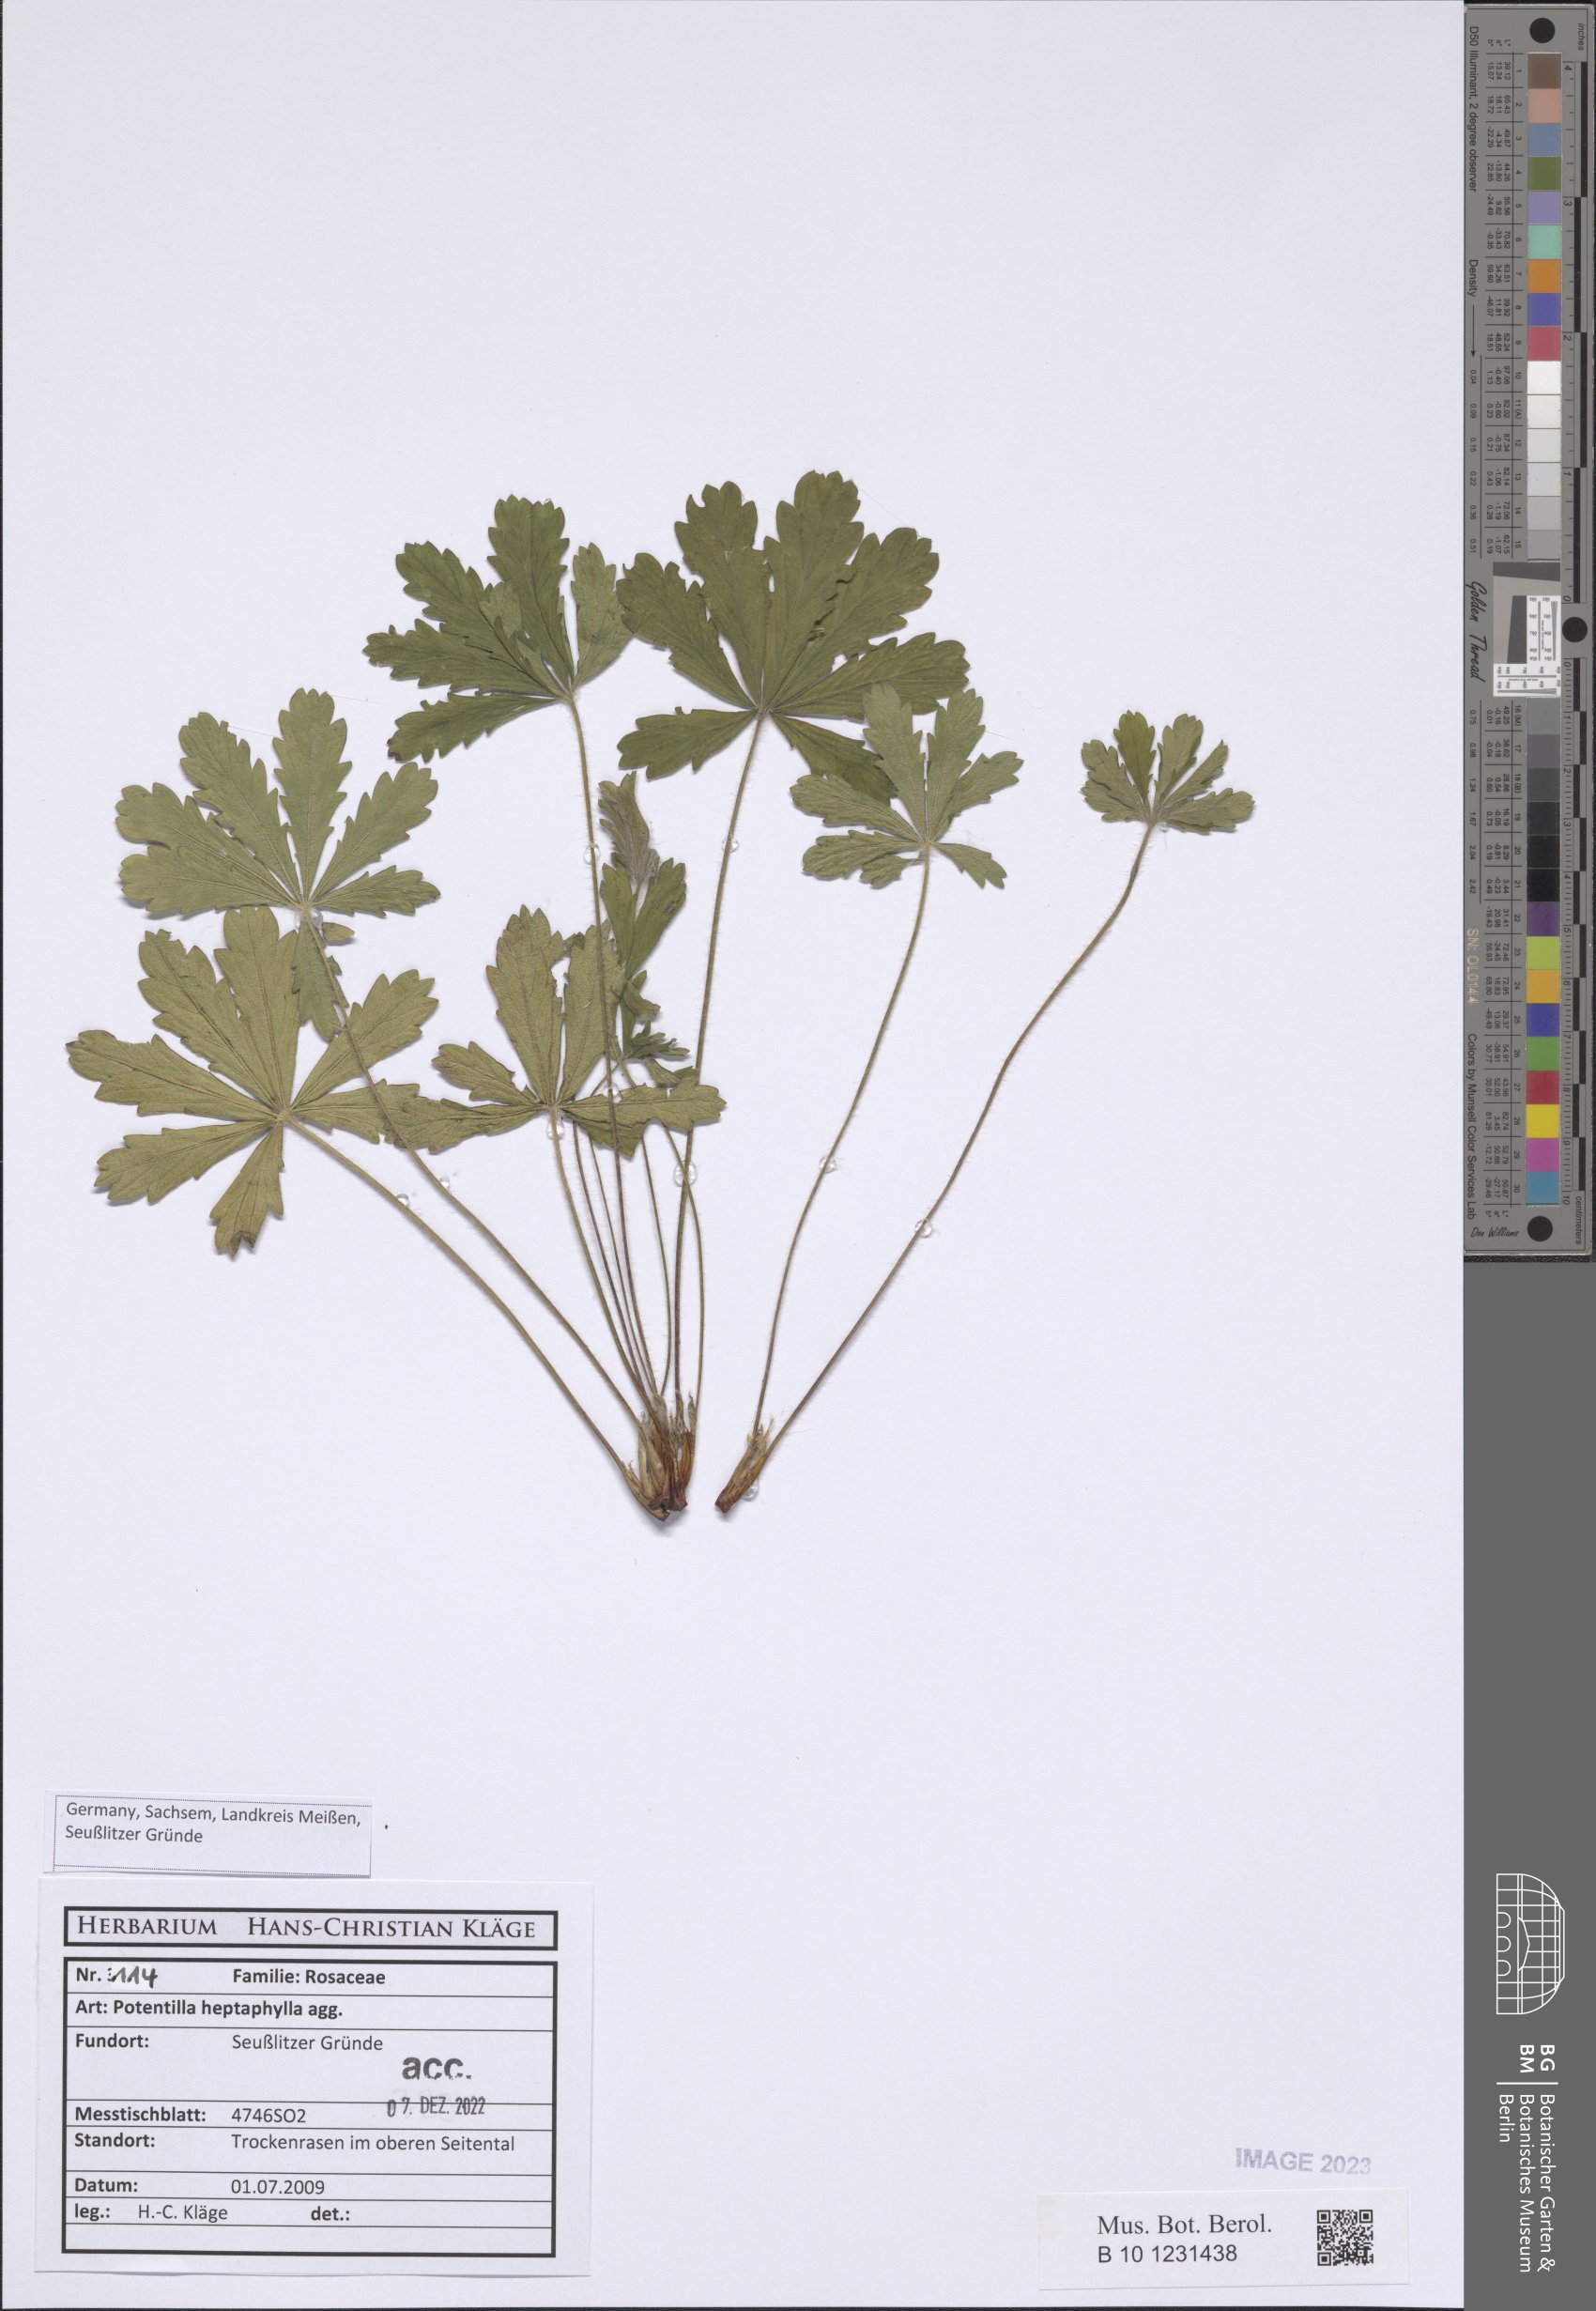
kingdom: Plantae
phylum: Tracheophyta
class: Magnoliopsida
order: Rosales
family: Rosaceae
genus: Potentilla
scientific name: Potentilla hirta
